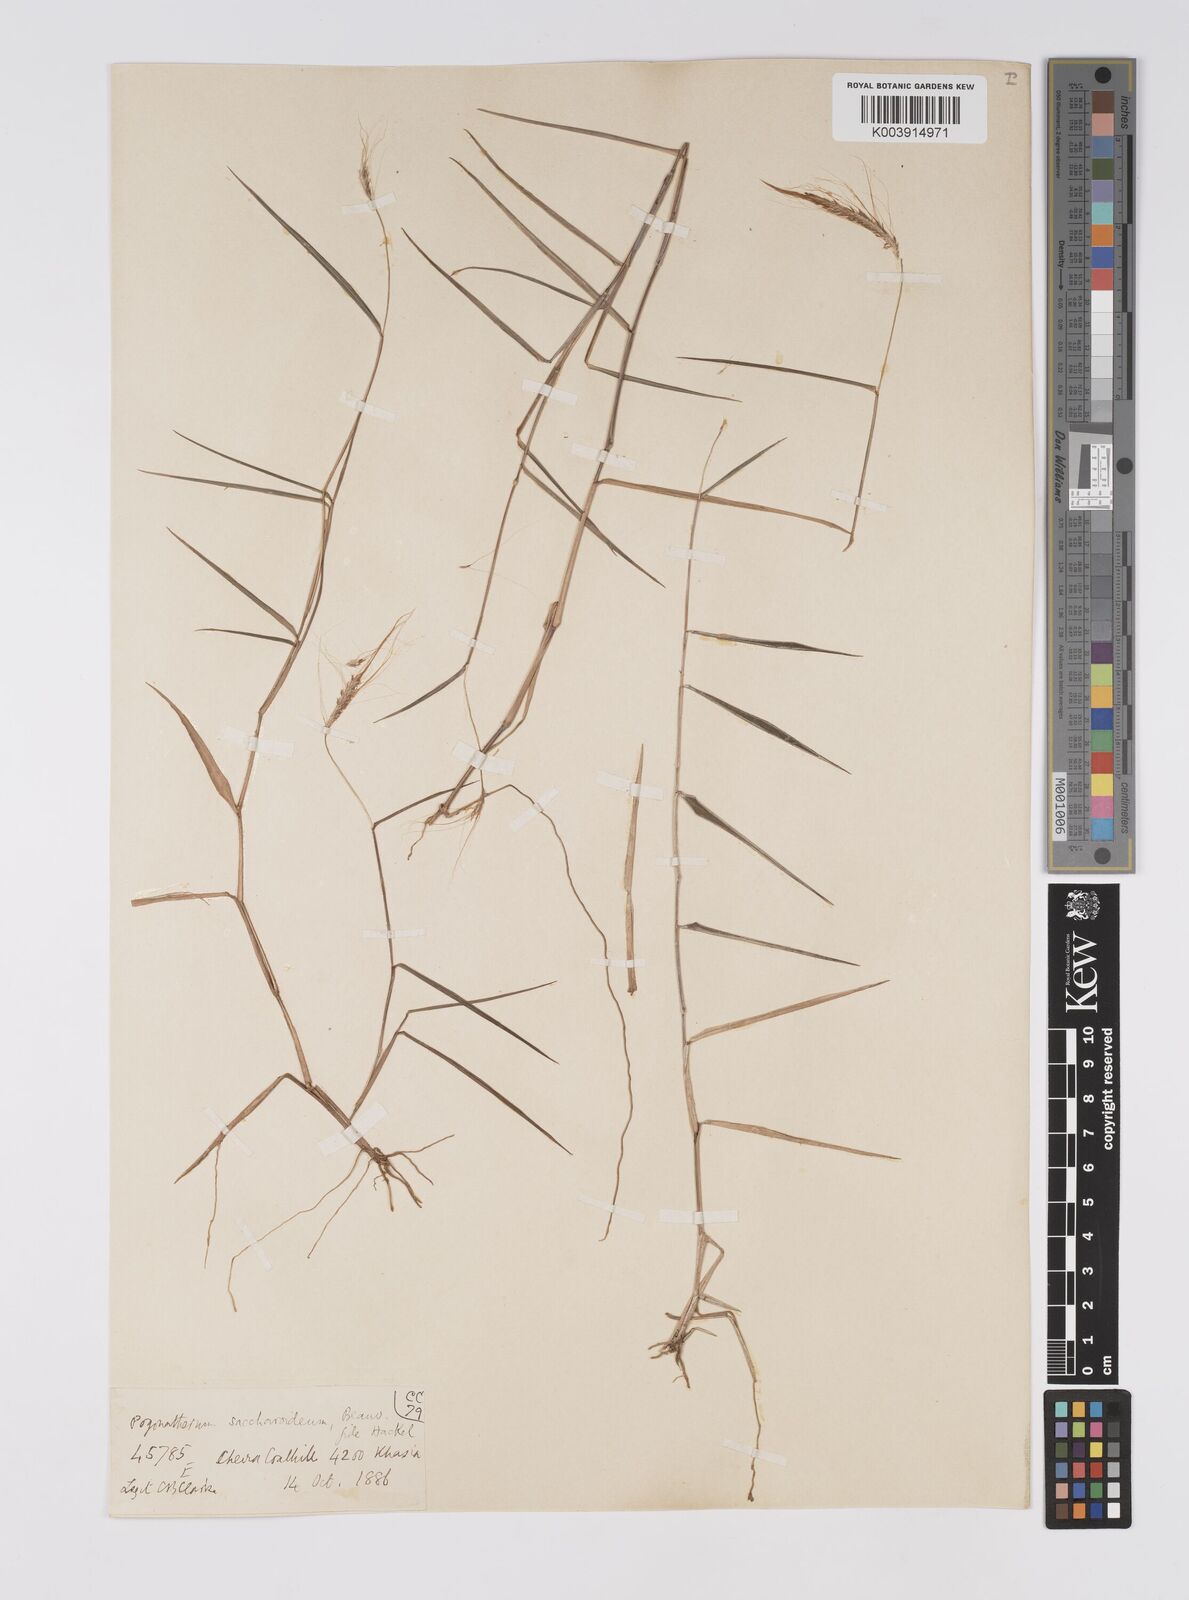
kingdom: Plantae
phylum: Tracheophyta
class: Liliopsida
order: Poales
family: Poaceae
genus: Pogonatherum
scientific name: Pogonatherum paniceum
